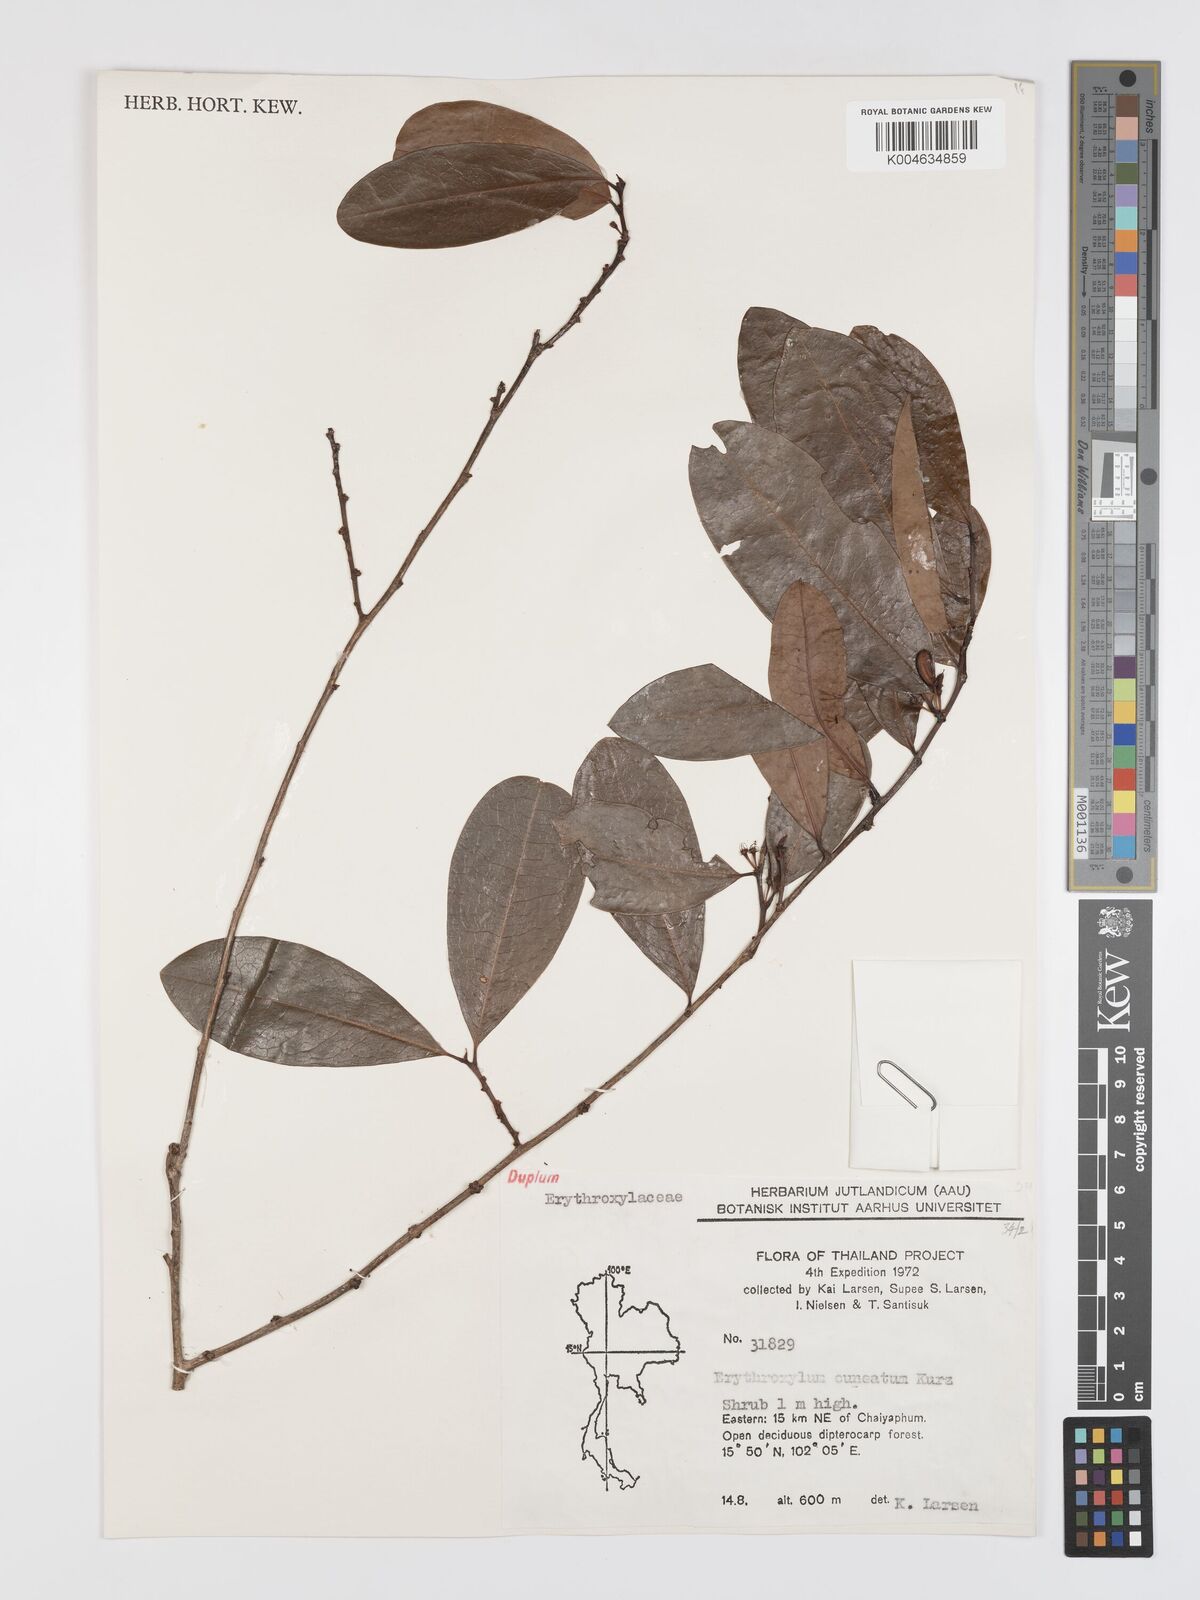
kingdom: Plantae
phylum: Tracheophyta
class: Magnoliopsida
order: Malpighiales
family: Erythroxylaceae
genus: Erythroxylum
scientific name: Erythroxylum cuneatum
